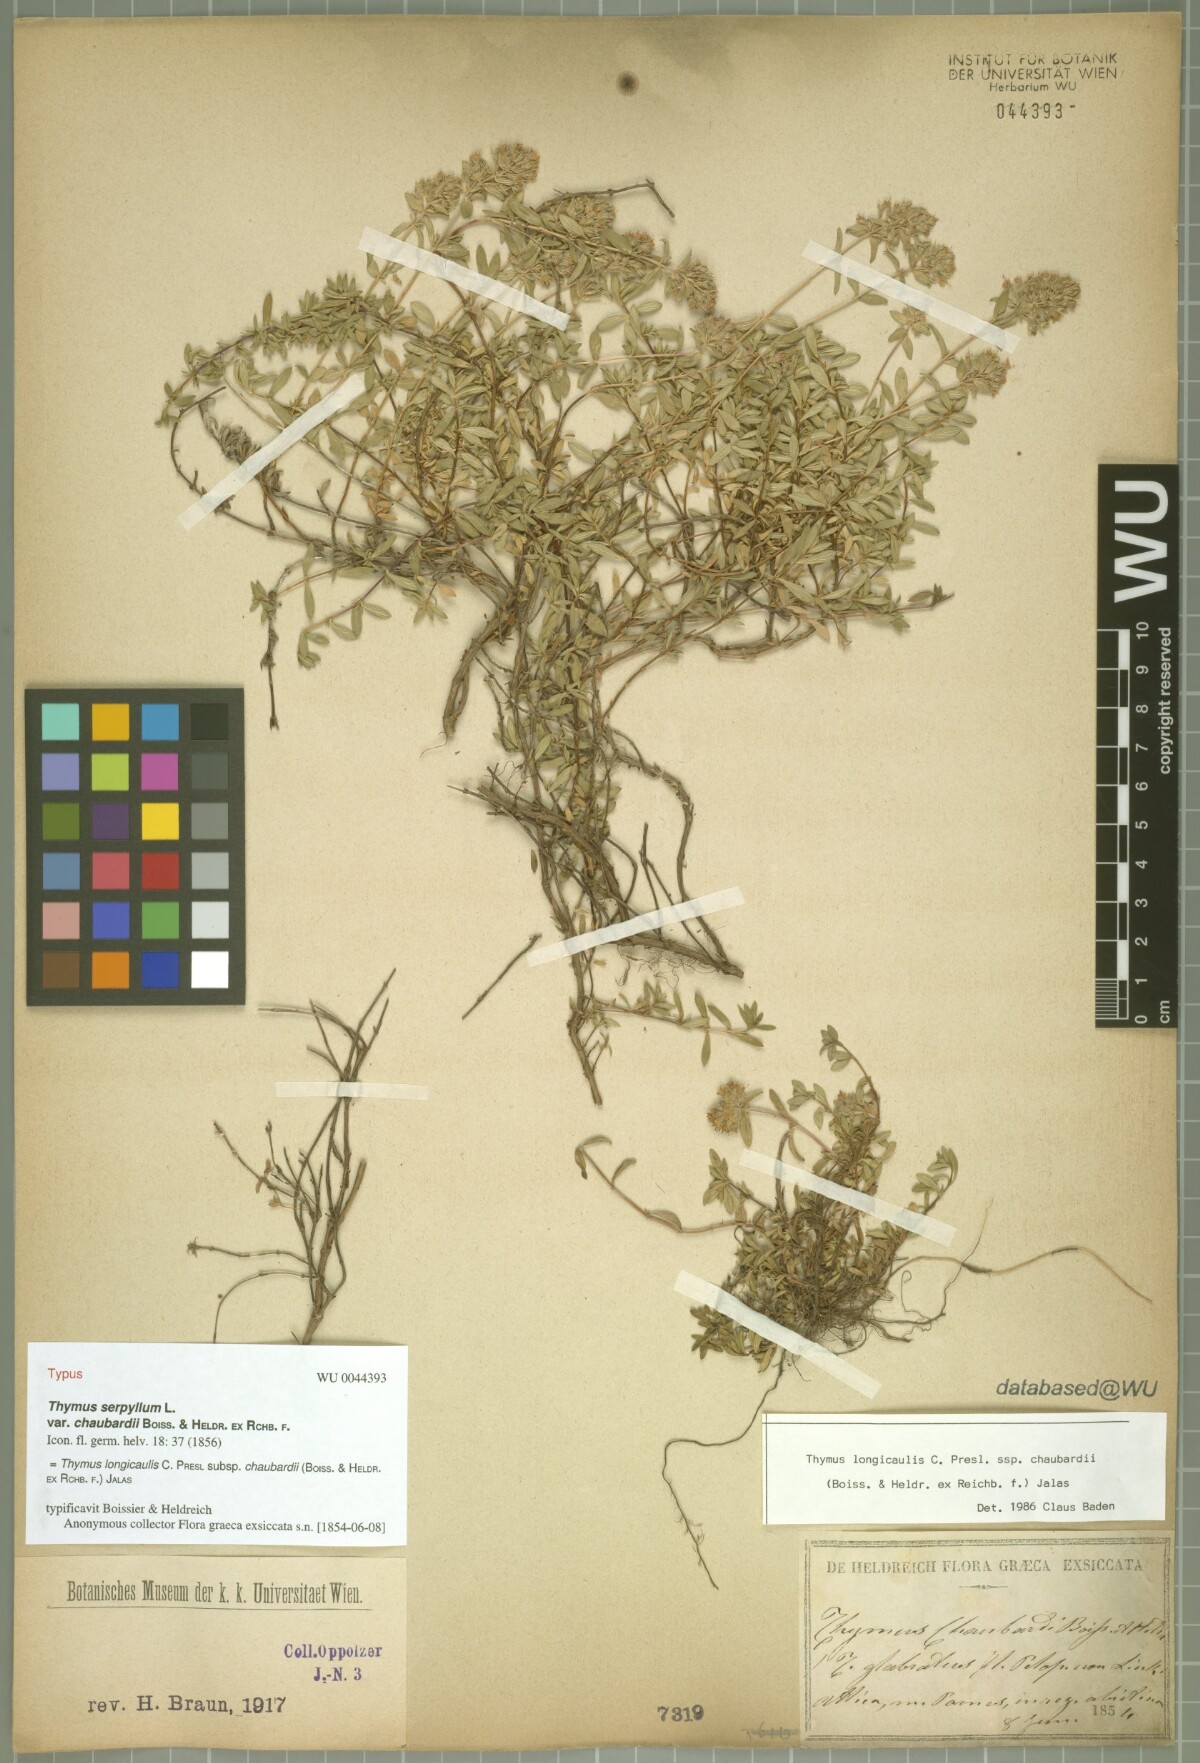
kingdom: Plantae
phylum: Tracheophyta
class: Magnoliopsida
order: Lamiales
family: Lamiaceae
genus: Thymus
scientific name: Thymus longicaulis
